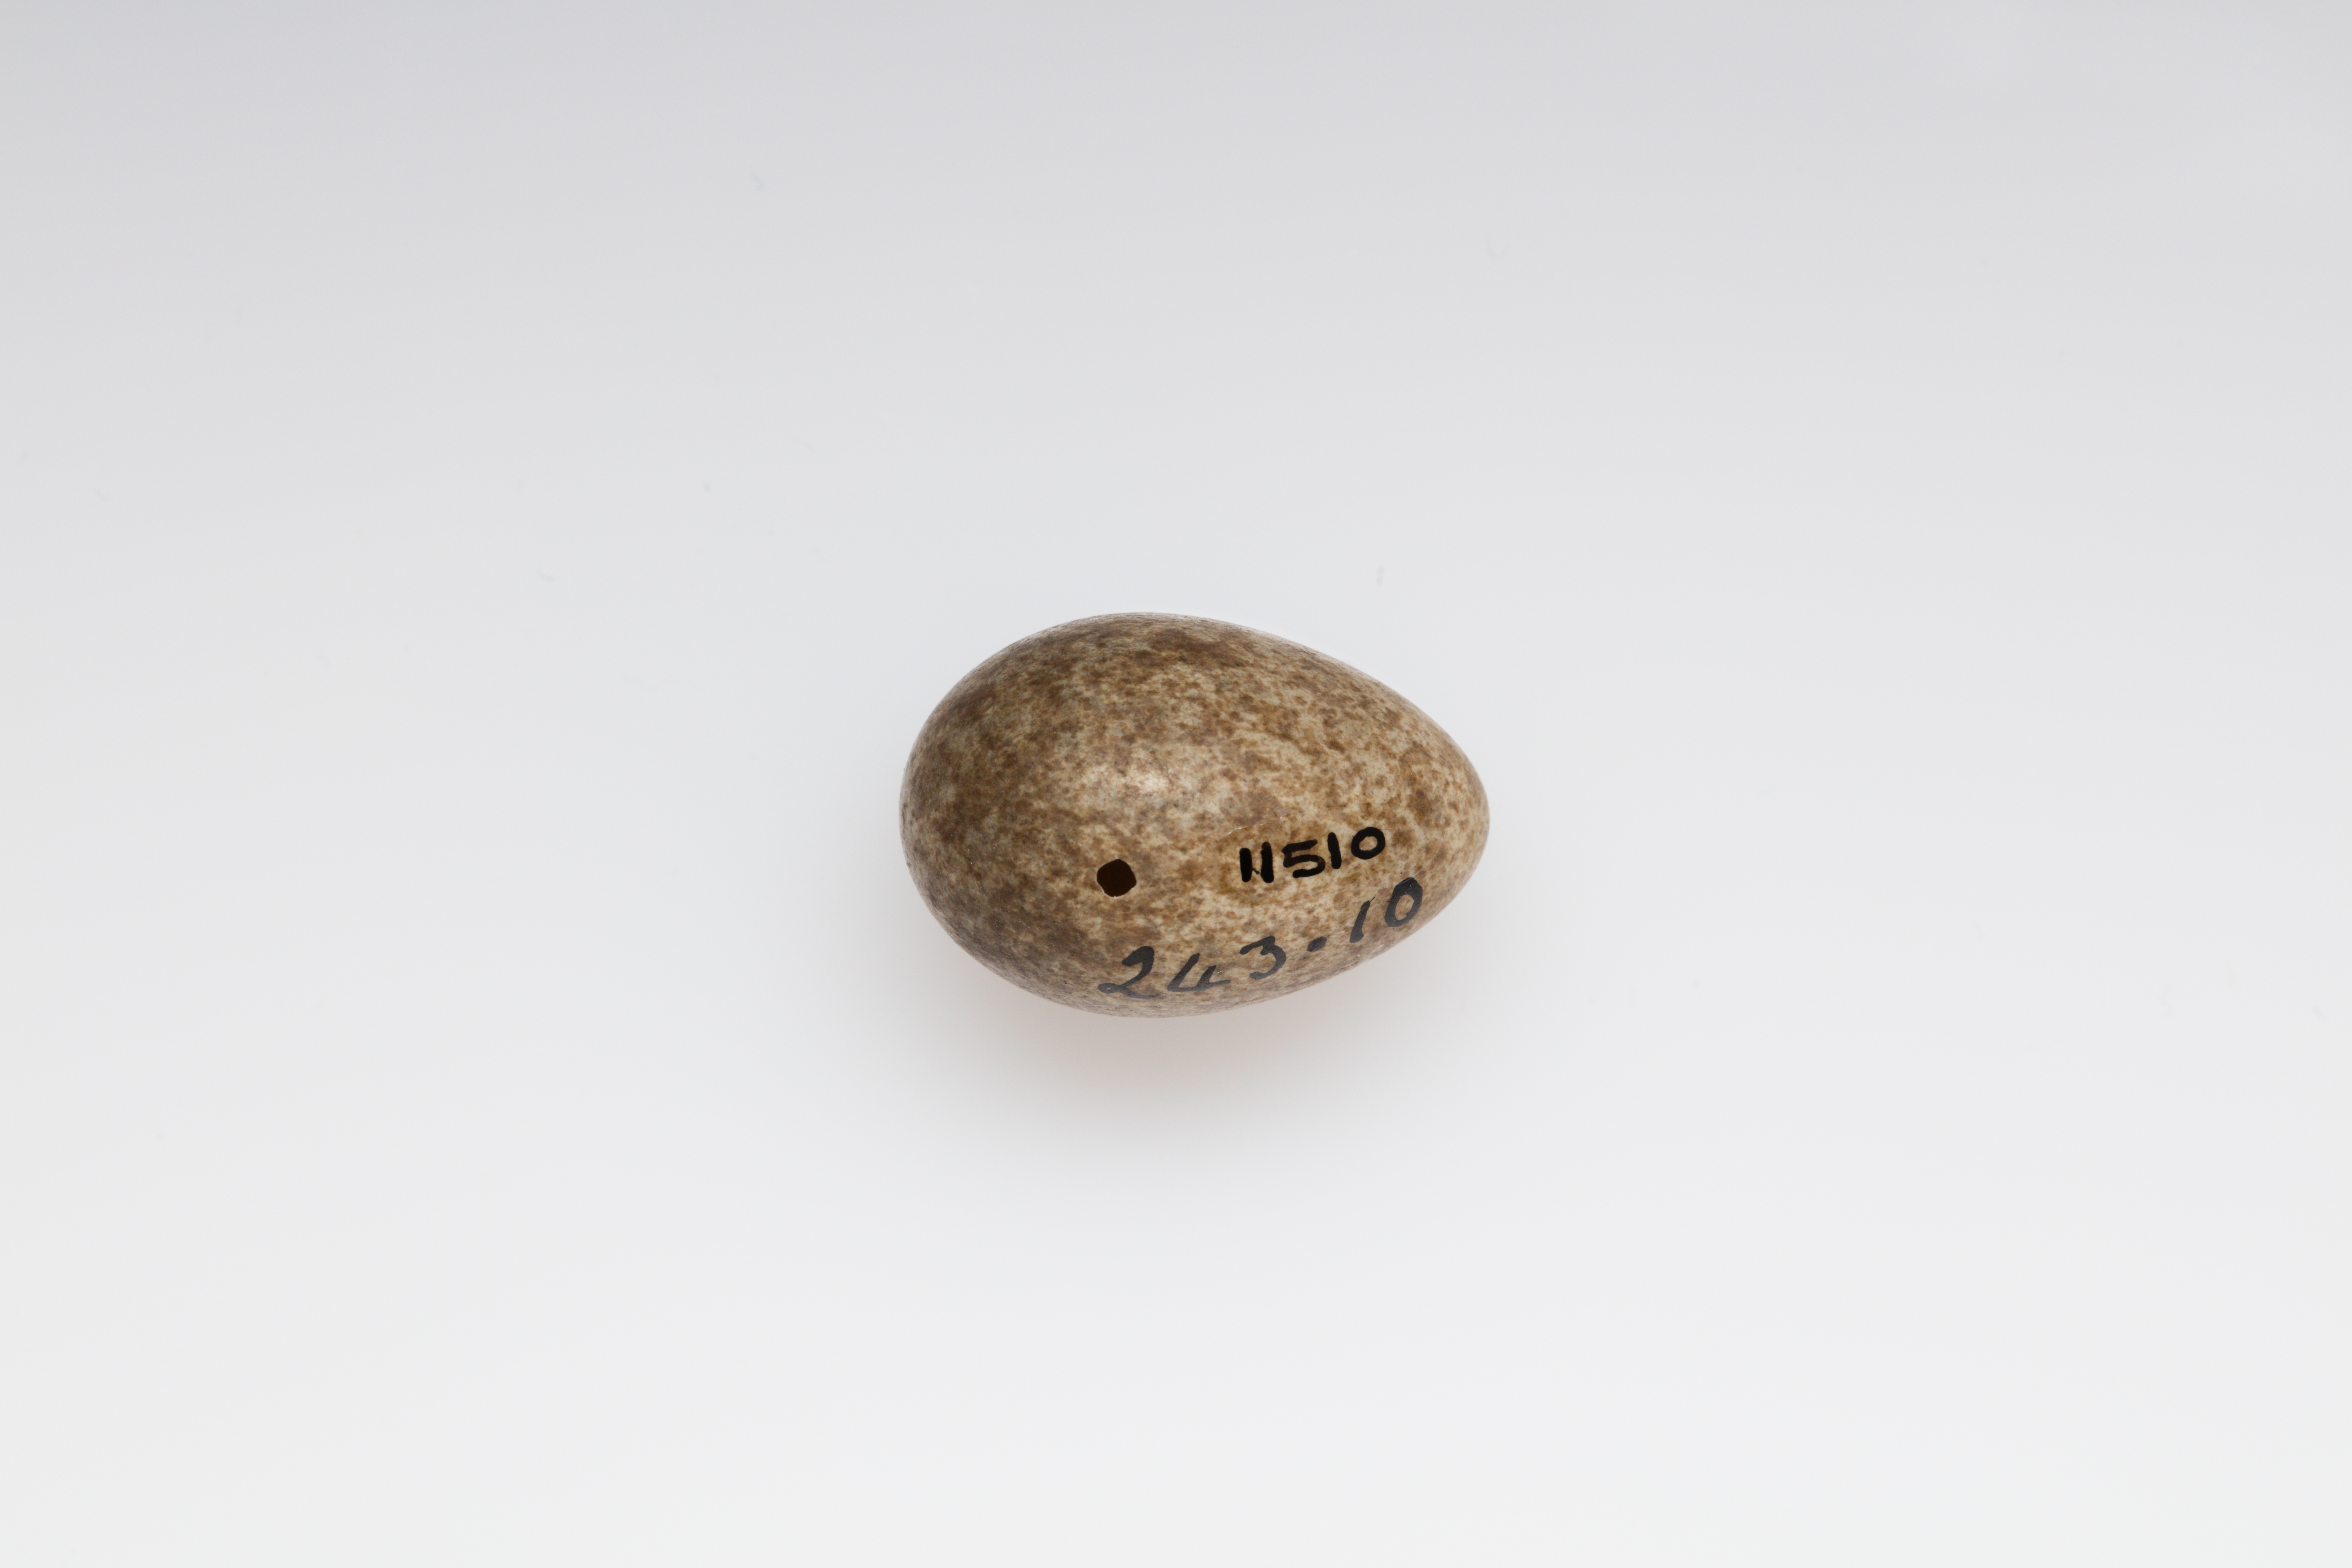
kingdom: Animalia
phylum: Chordata
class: Aves
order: Passeriformes
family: Alaudidae
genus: Alauda
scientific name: Alauda arvensis
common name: Eurasian skylark
